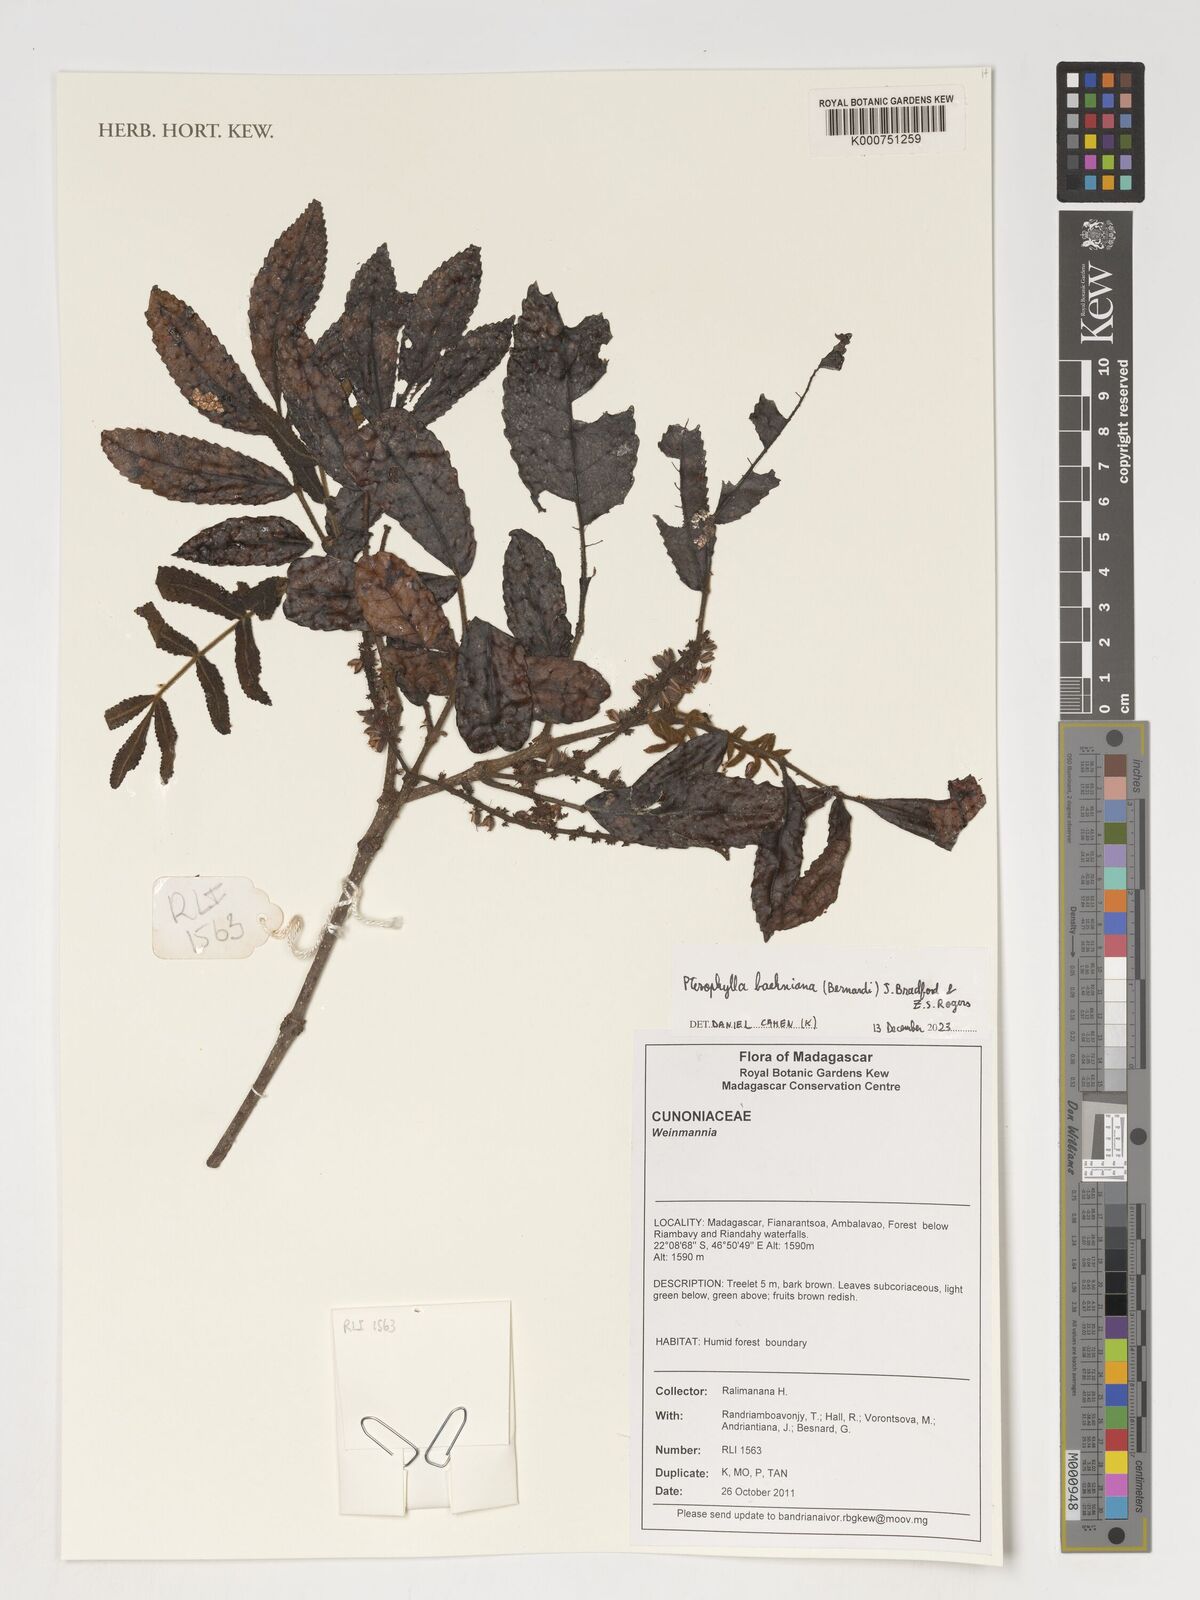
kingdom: Plantae
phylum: Tracheophyta
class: Magnoliopsida
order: Oxalidales
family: Cunoniaceae
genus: Pterophylla
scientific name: Pterophylla
